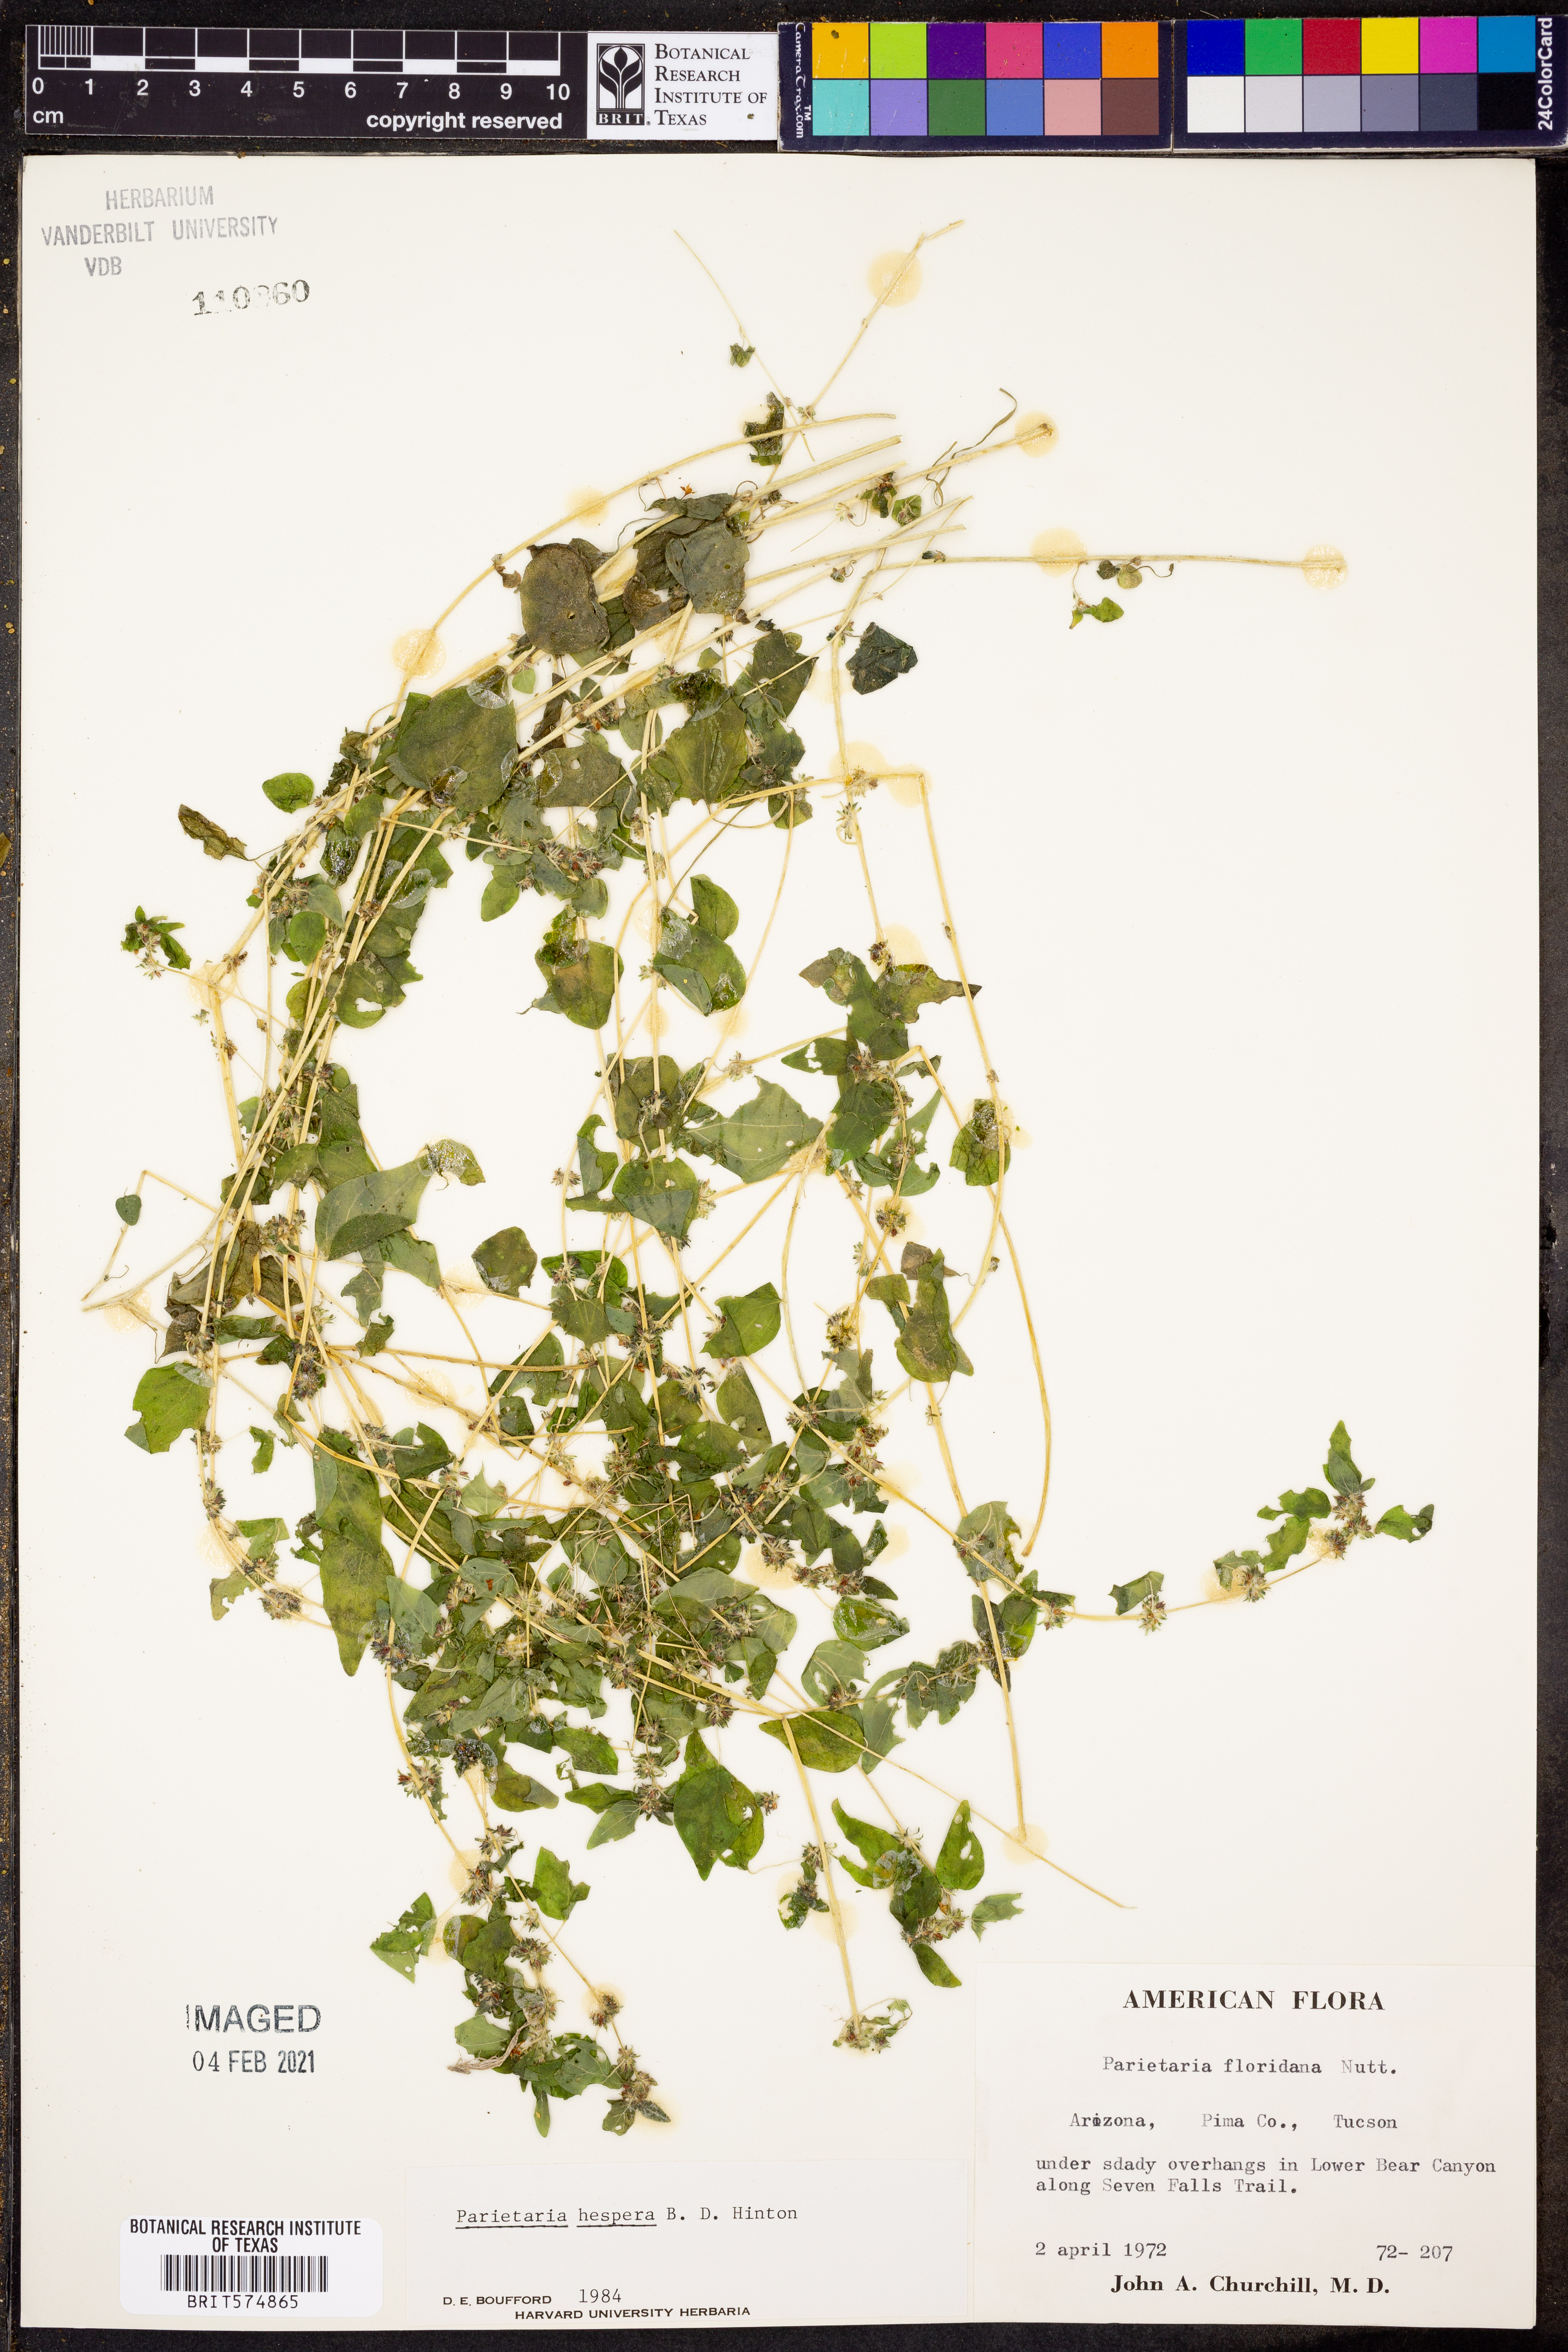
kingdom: Plantae
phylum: Tracheophyta
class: Magnoliopsida
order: Rosales
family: Urticaceae
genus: Parietaria
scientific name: Parietaria hespera
